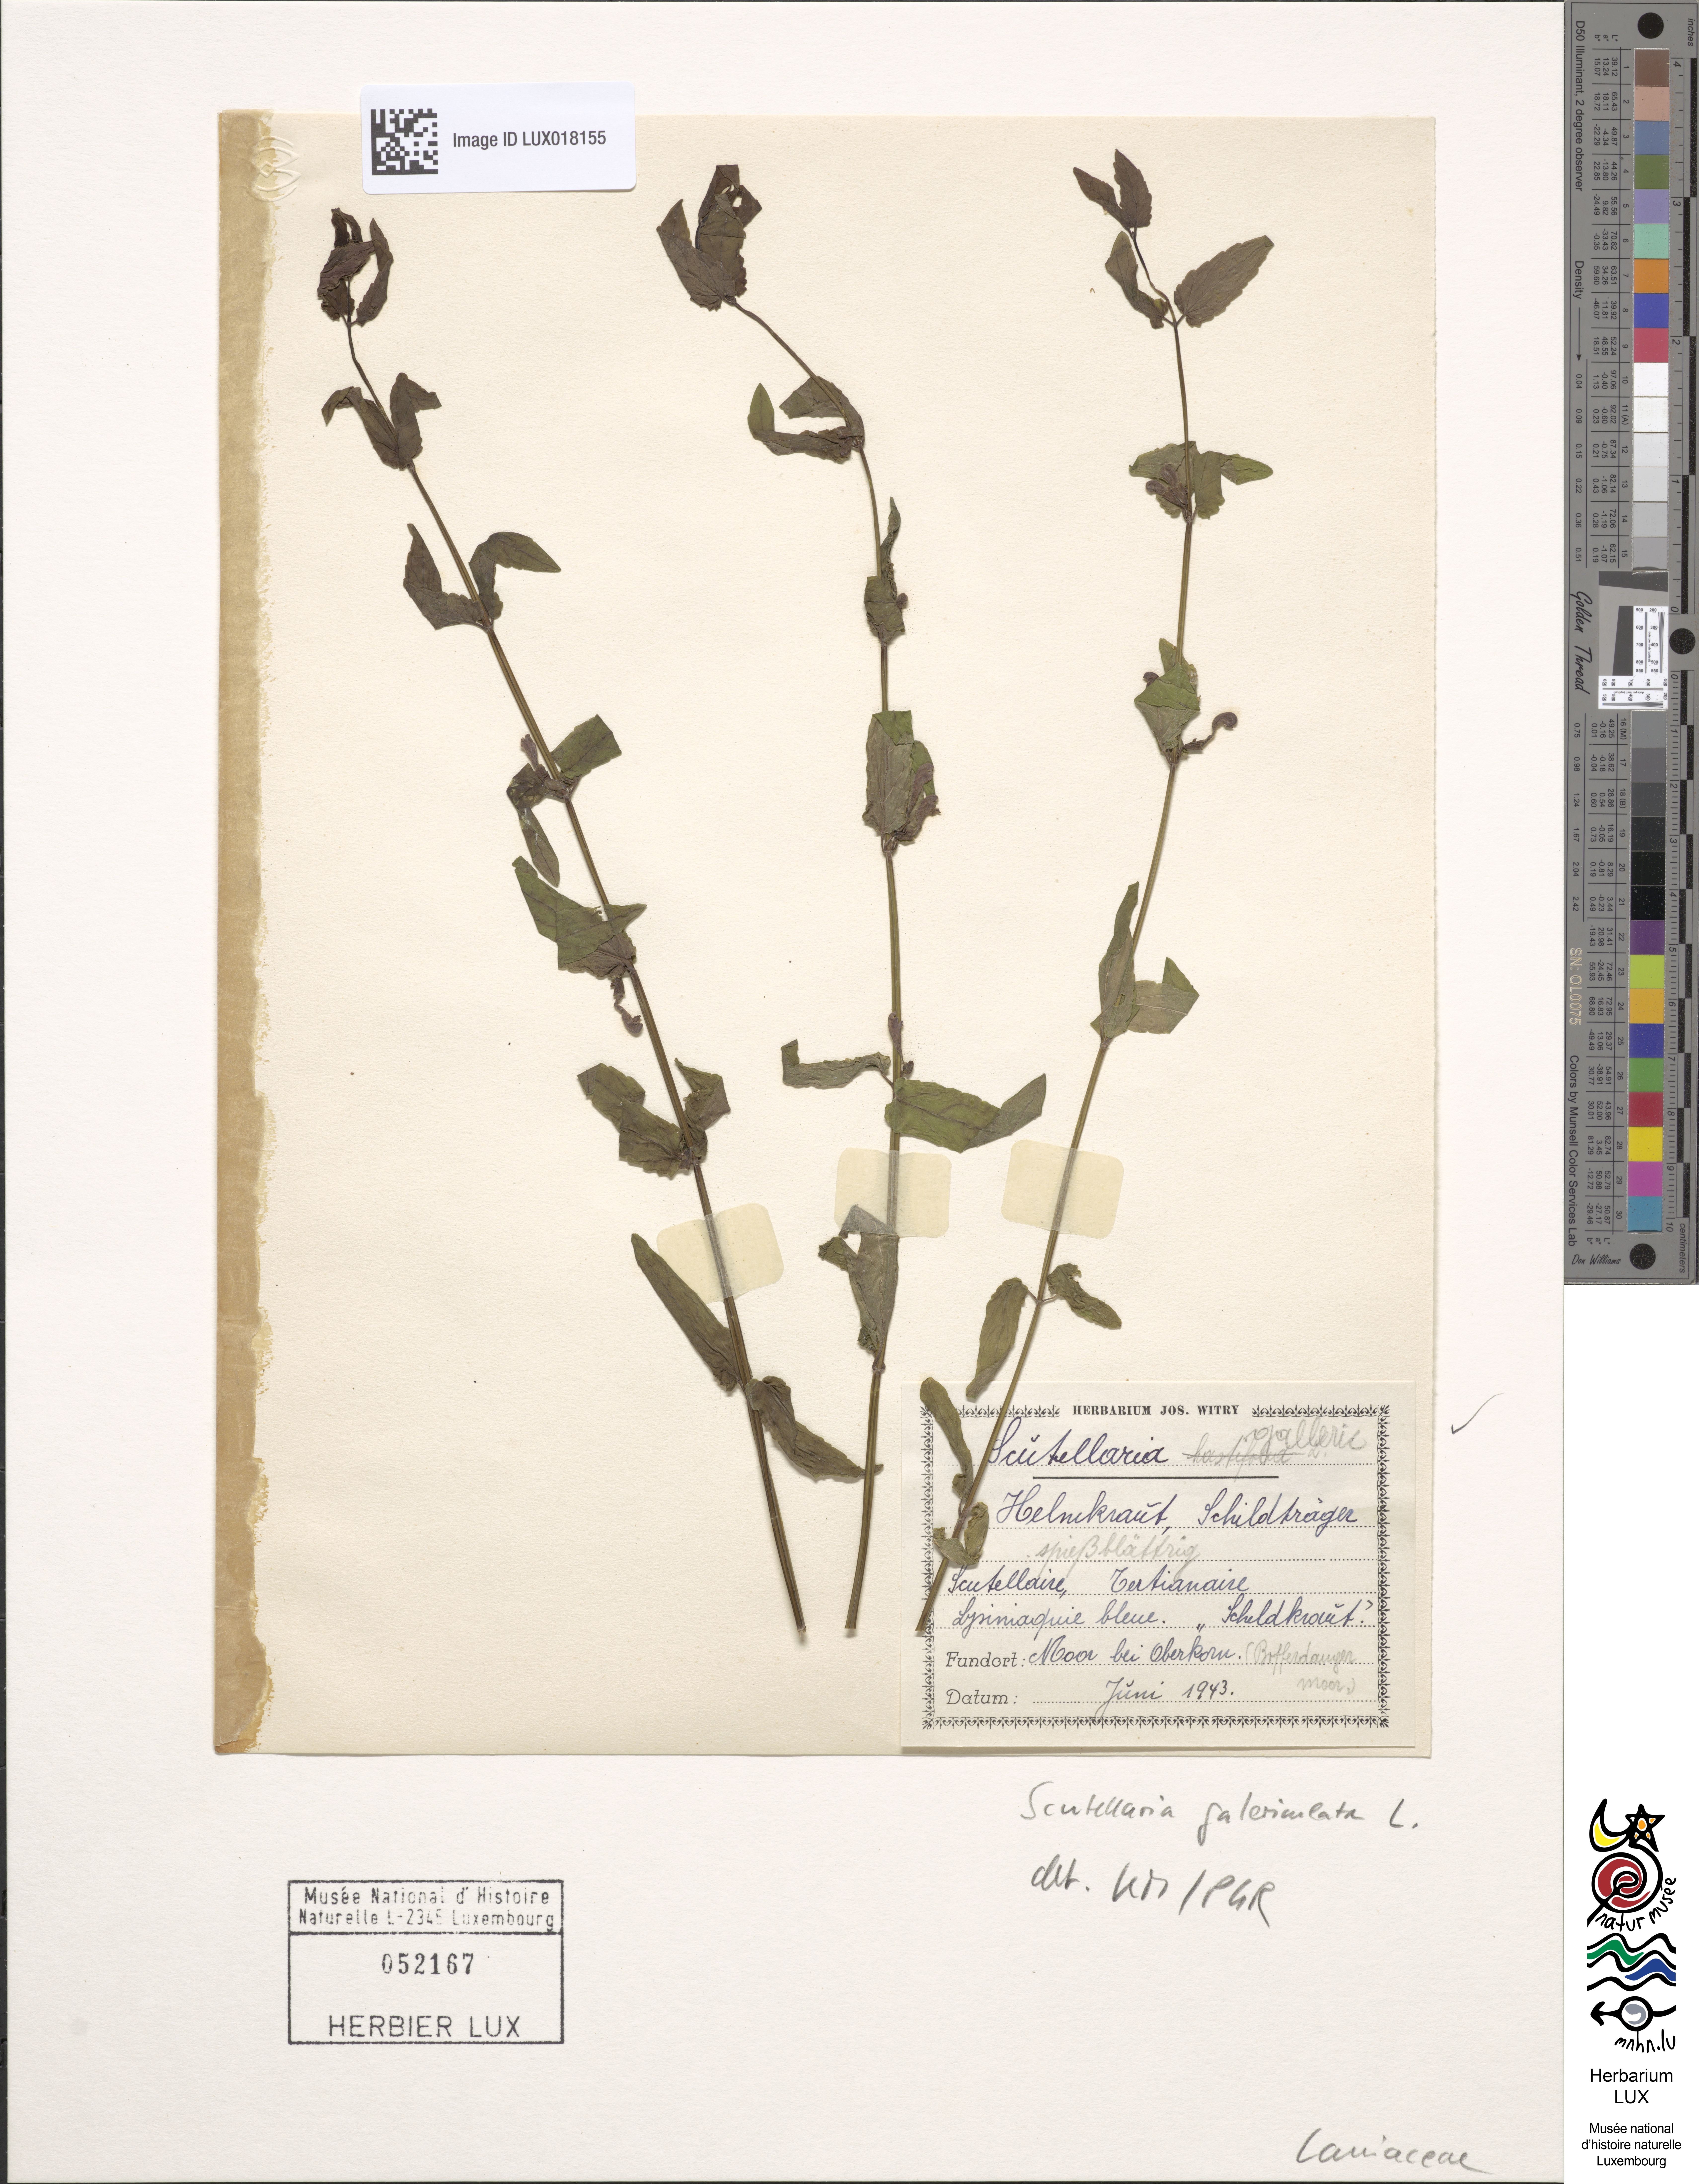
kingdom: Plantae
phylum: Tracheophyta
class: Magnoliopsida
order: Lamiales
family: Lamiaceae
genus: Scutellaria
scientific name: Scutellaria galericulata
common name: Skullcap
